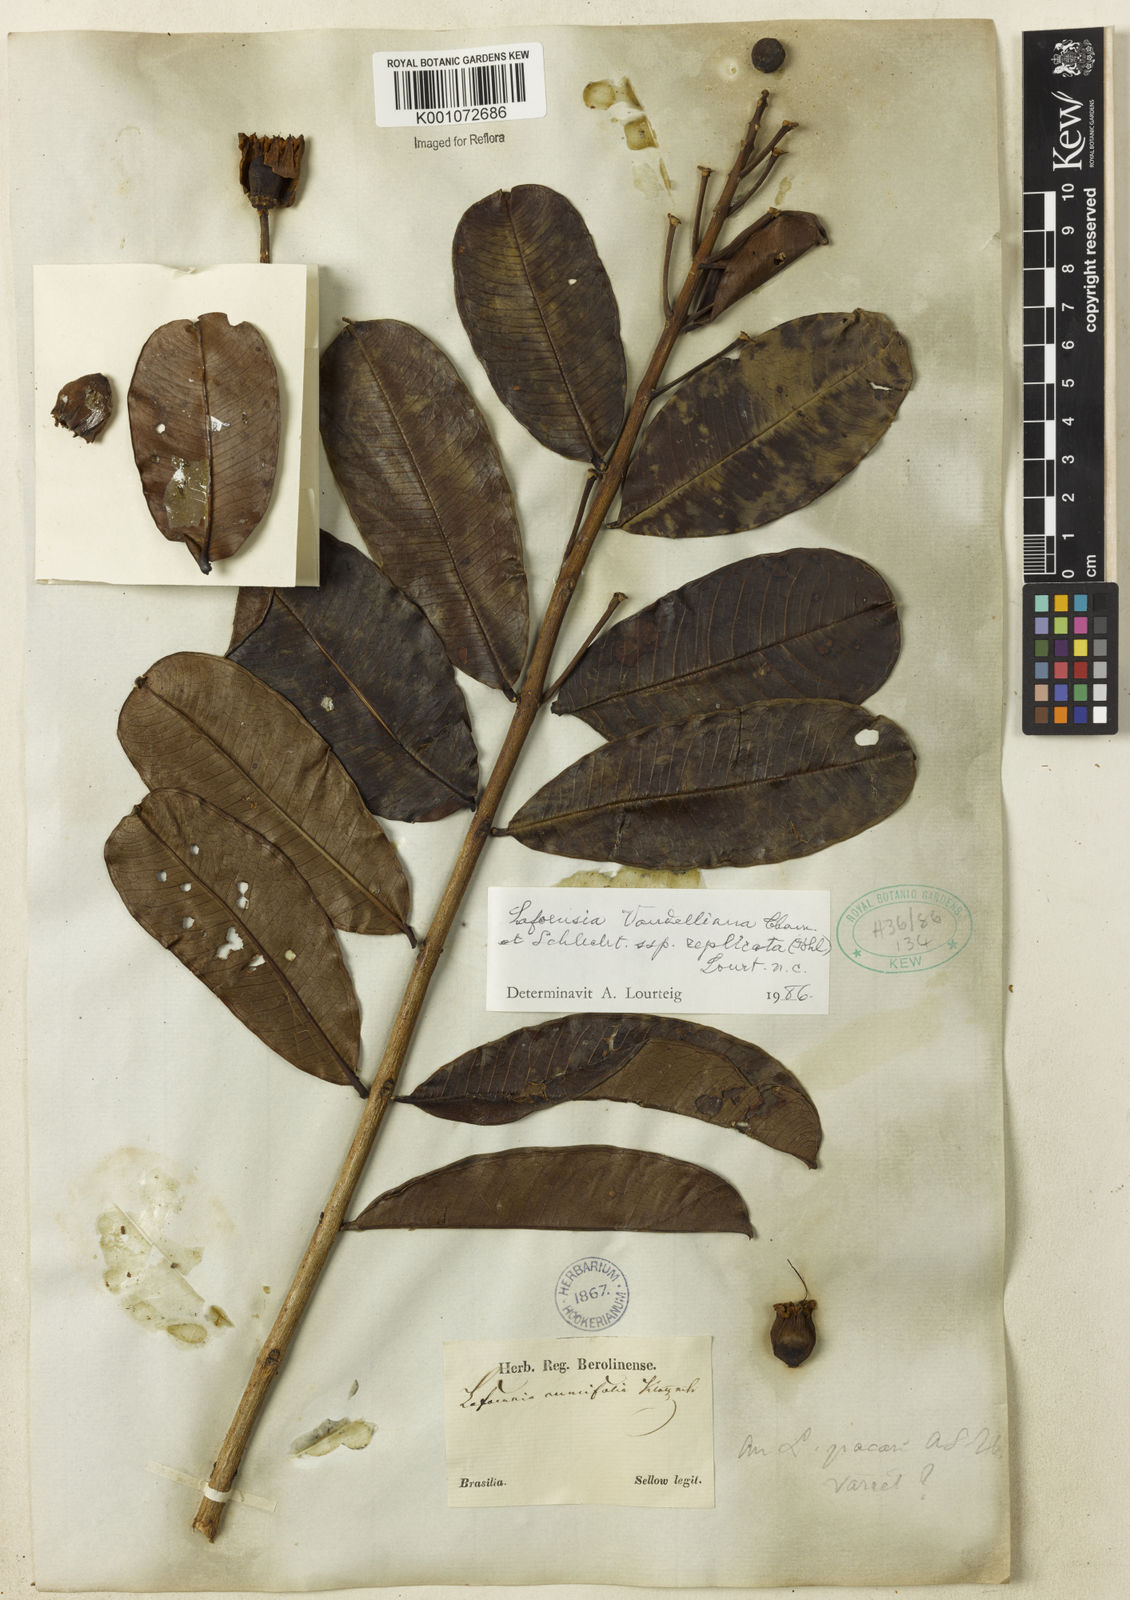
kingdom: Plantae
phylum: Tracheophyta
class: Magnoliopsida
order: Myrtales
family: Lythraceae
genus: Lafoensia
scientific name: Lafoensia vandelliana
